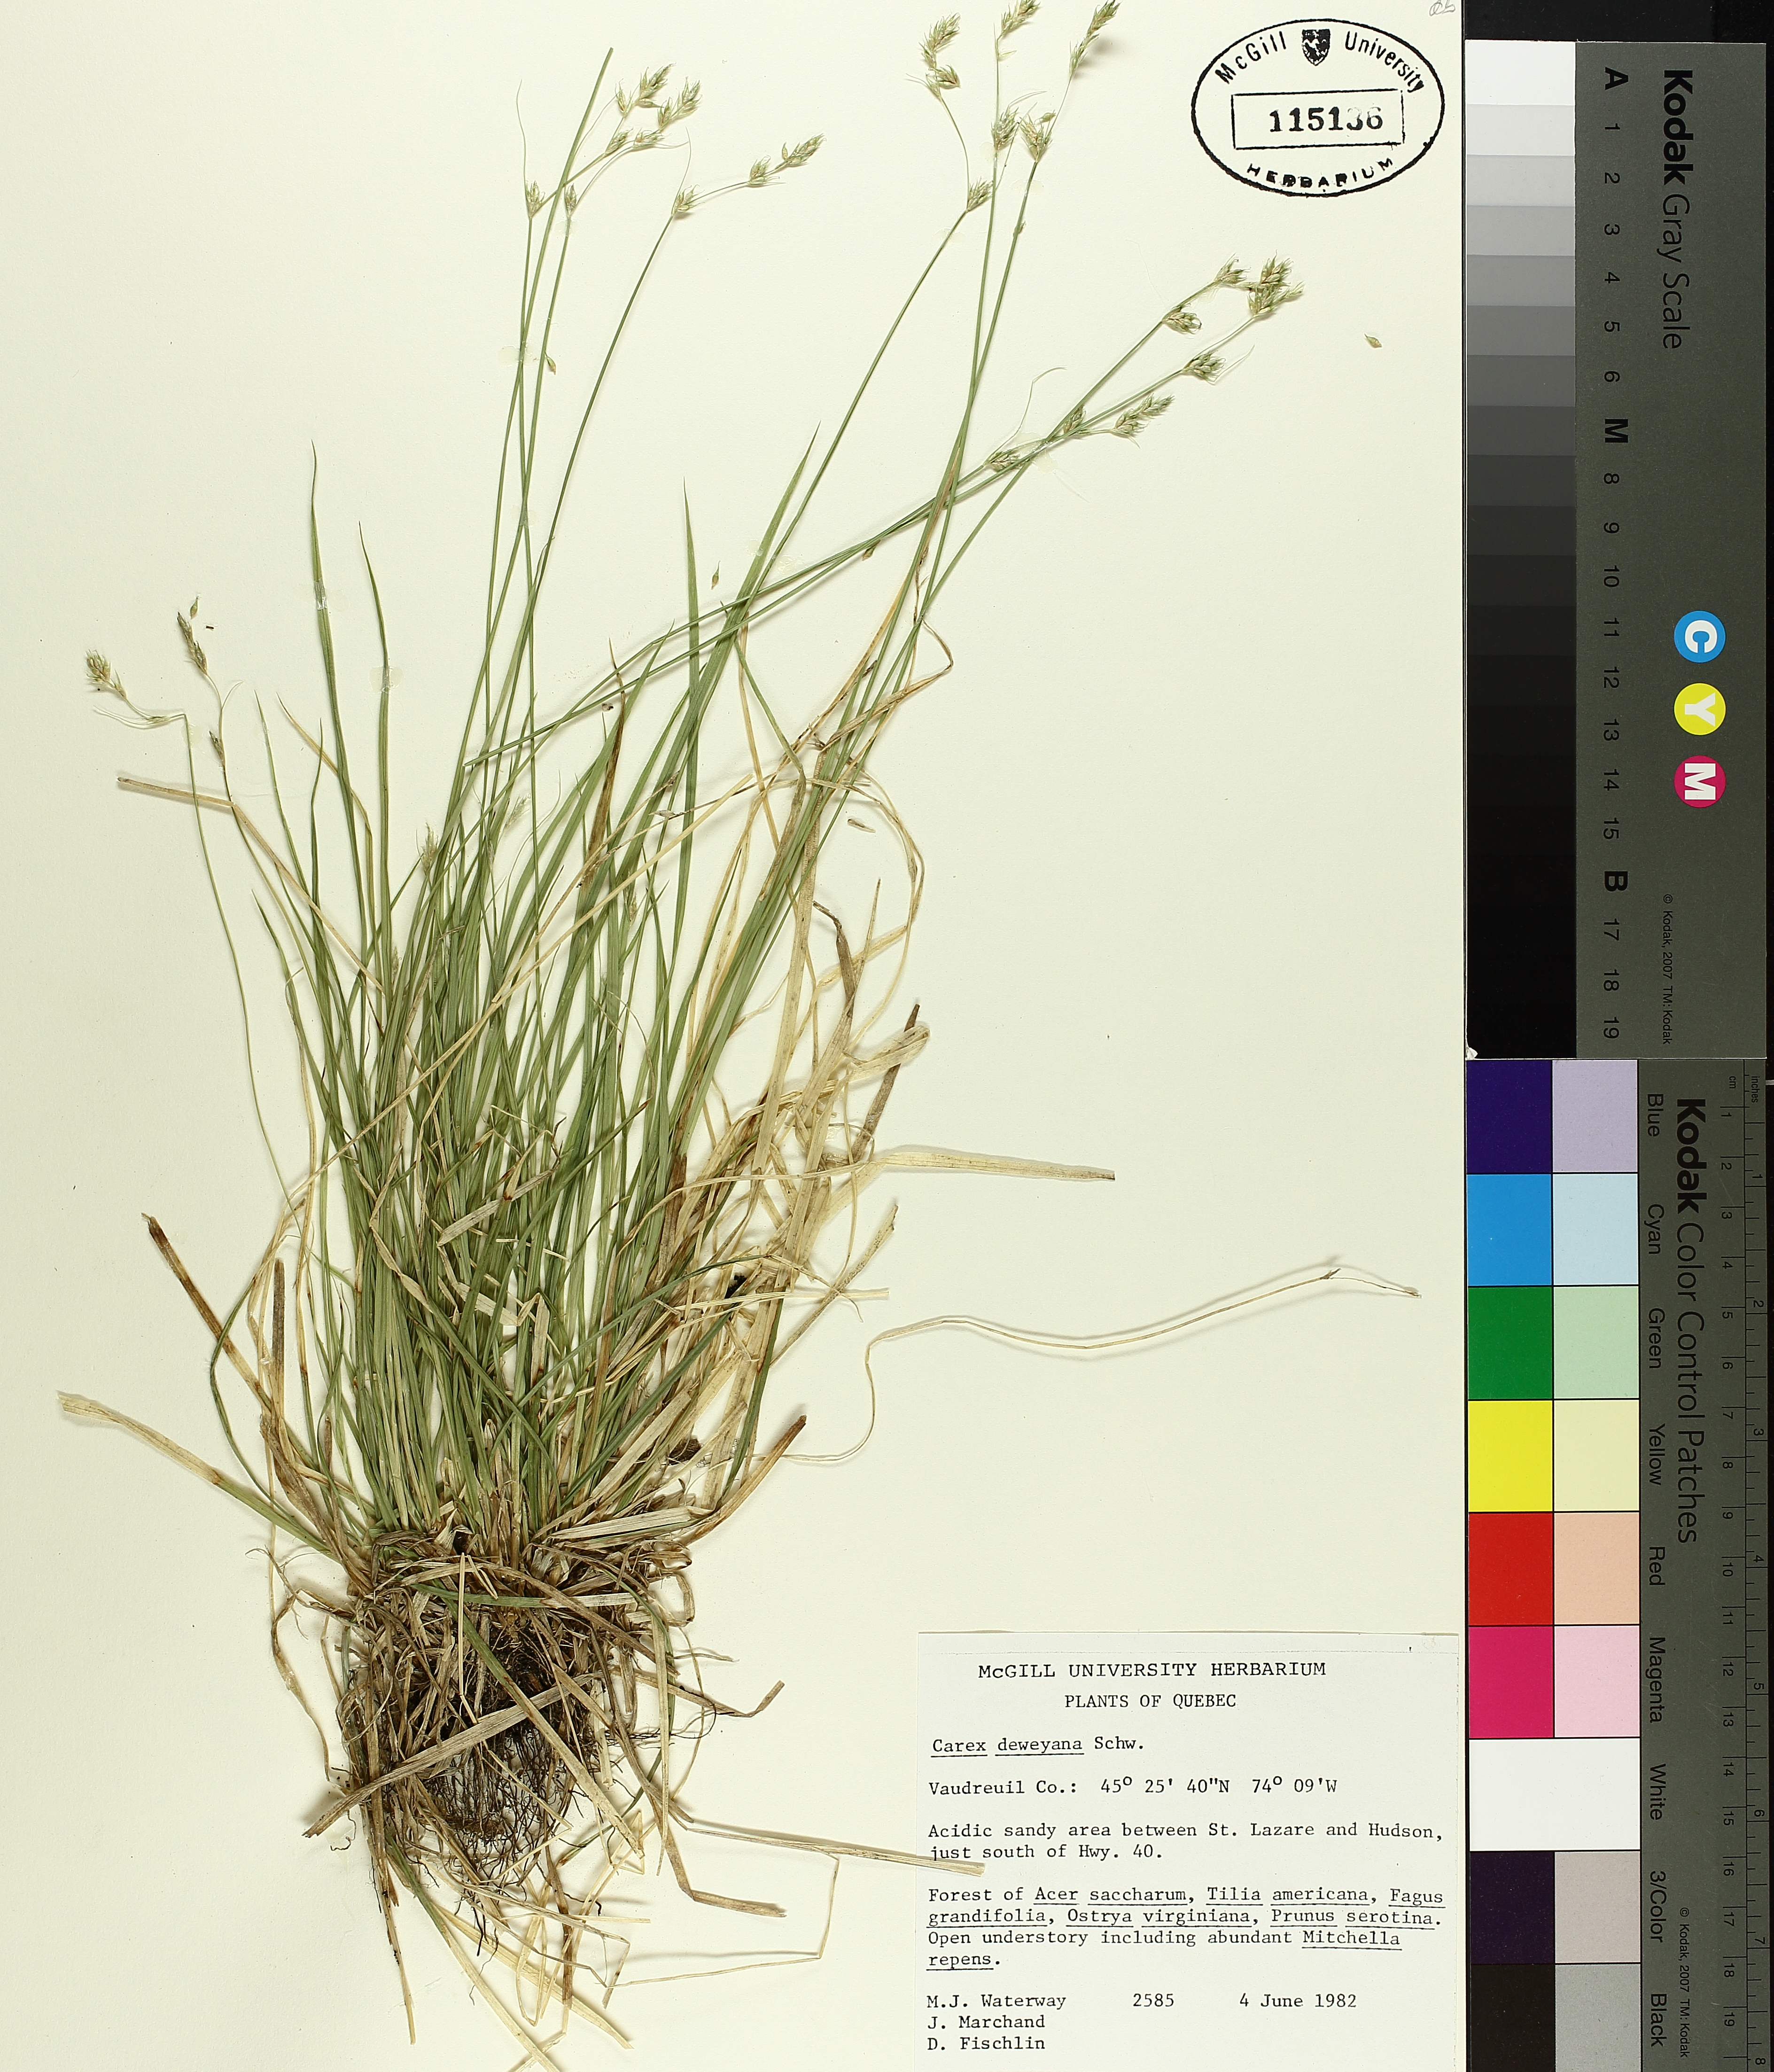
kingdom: Plantae
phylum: Tracheophyta
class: Liliopsida
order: Poales
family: Cyperaceae
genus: Carex
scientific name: Carex deweyana
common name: Dewey's sedge
